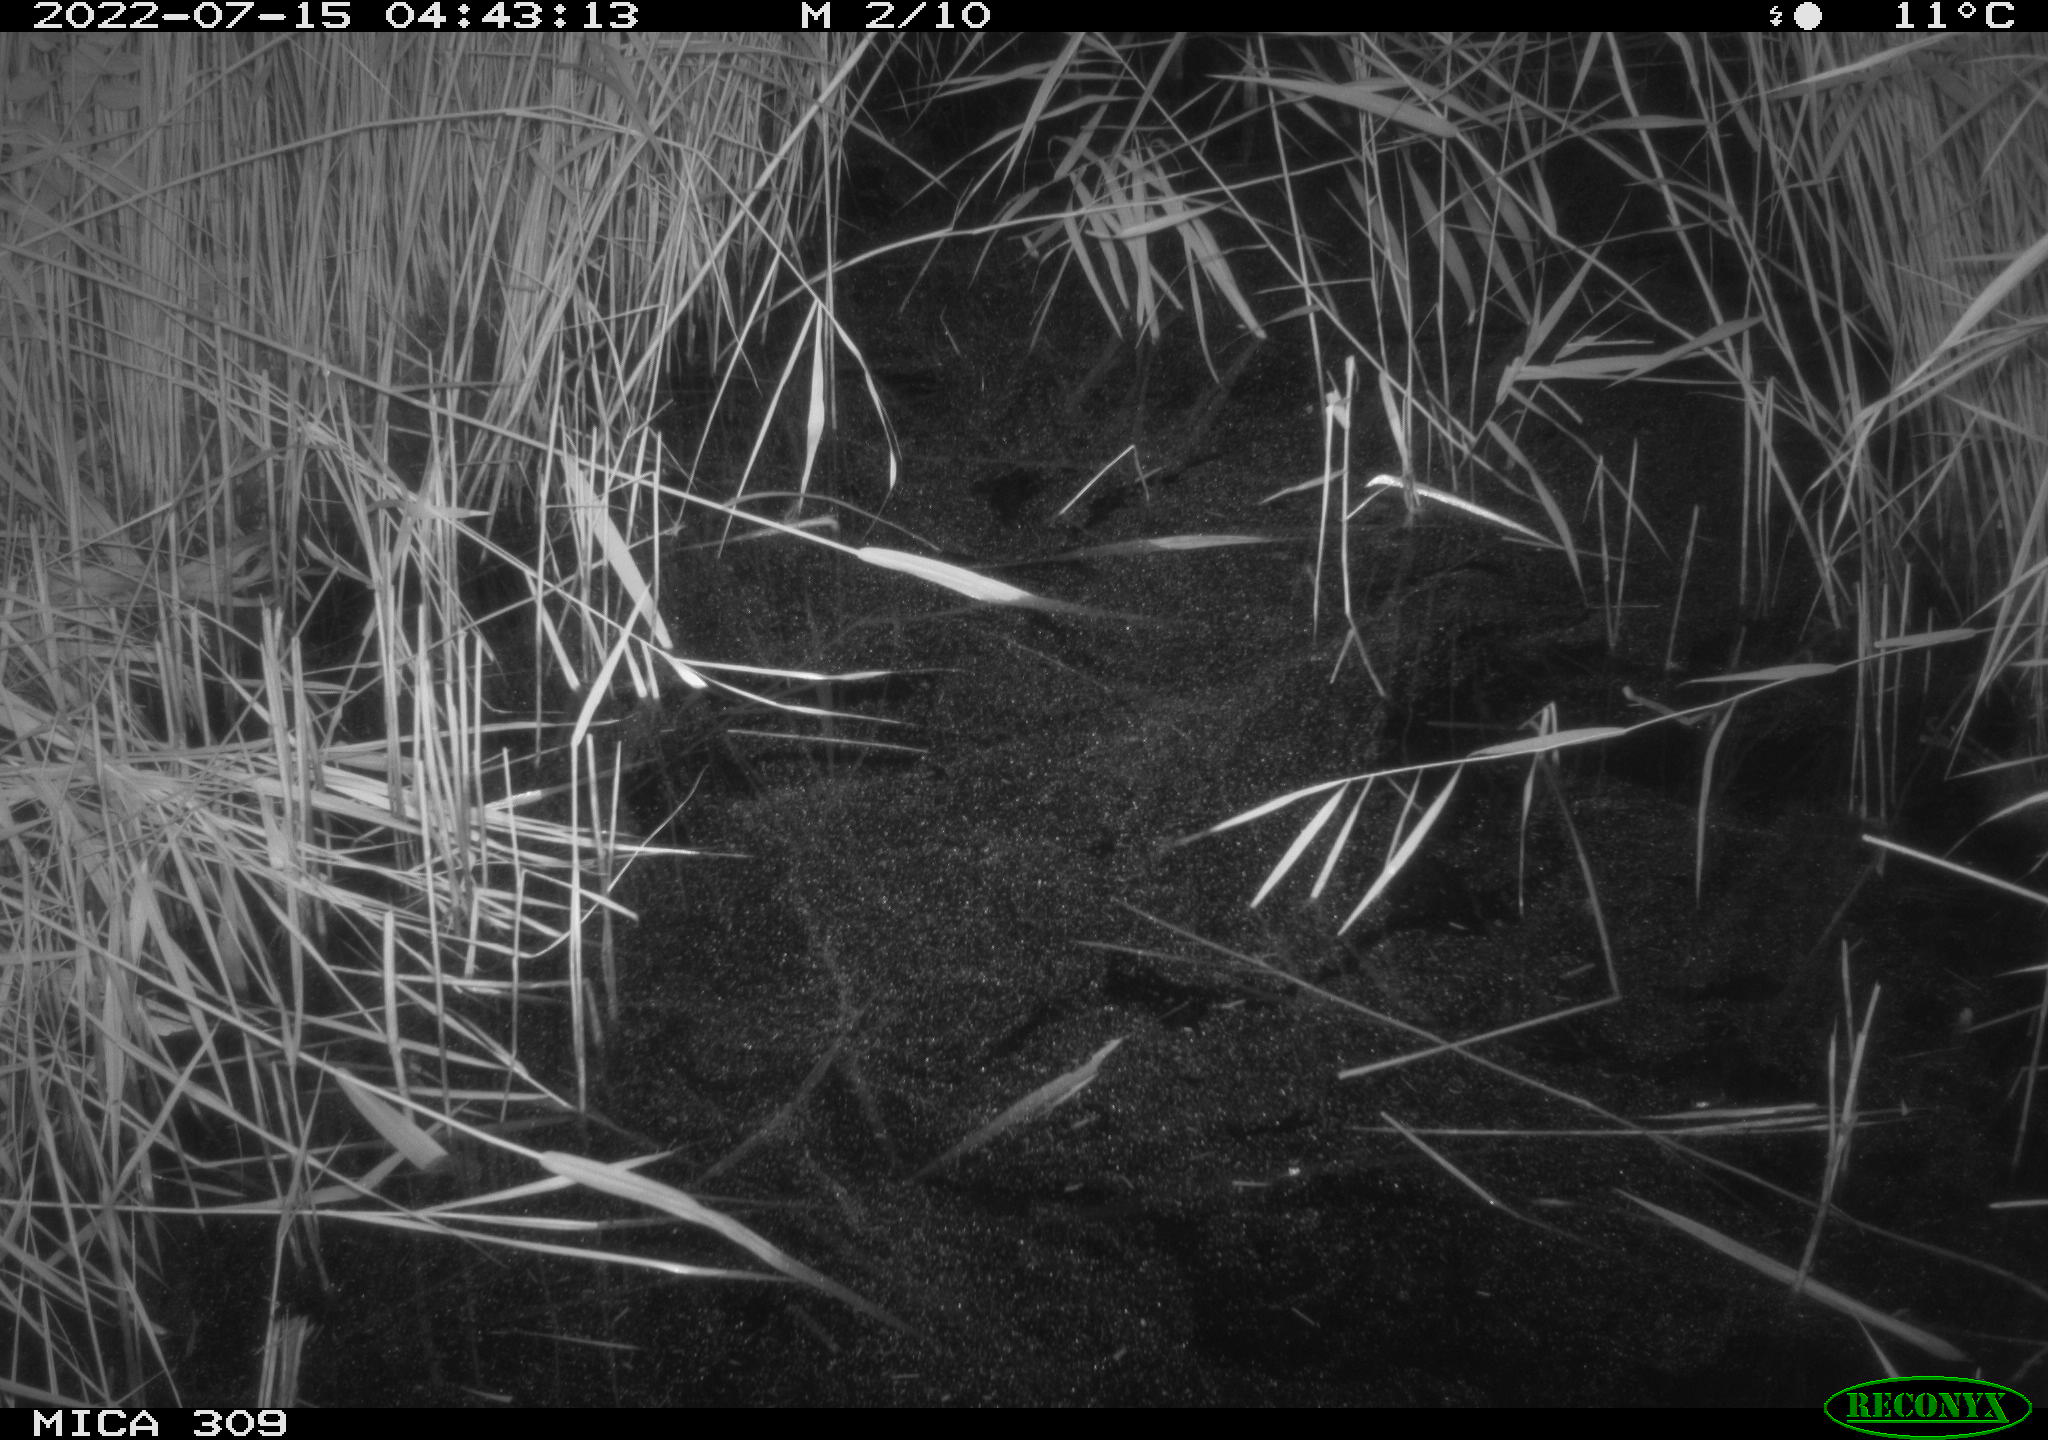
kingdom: Animalia
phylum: Chordata
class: Mammalia
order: Rodentia
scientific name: Rodentia
